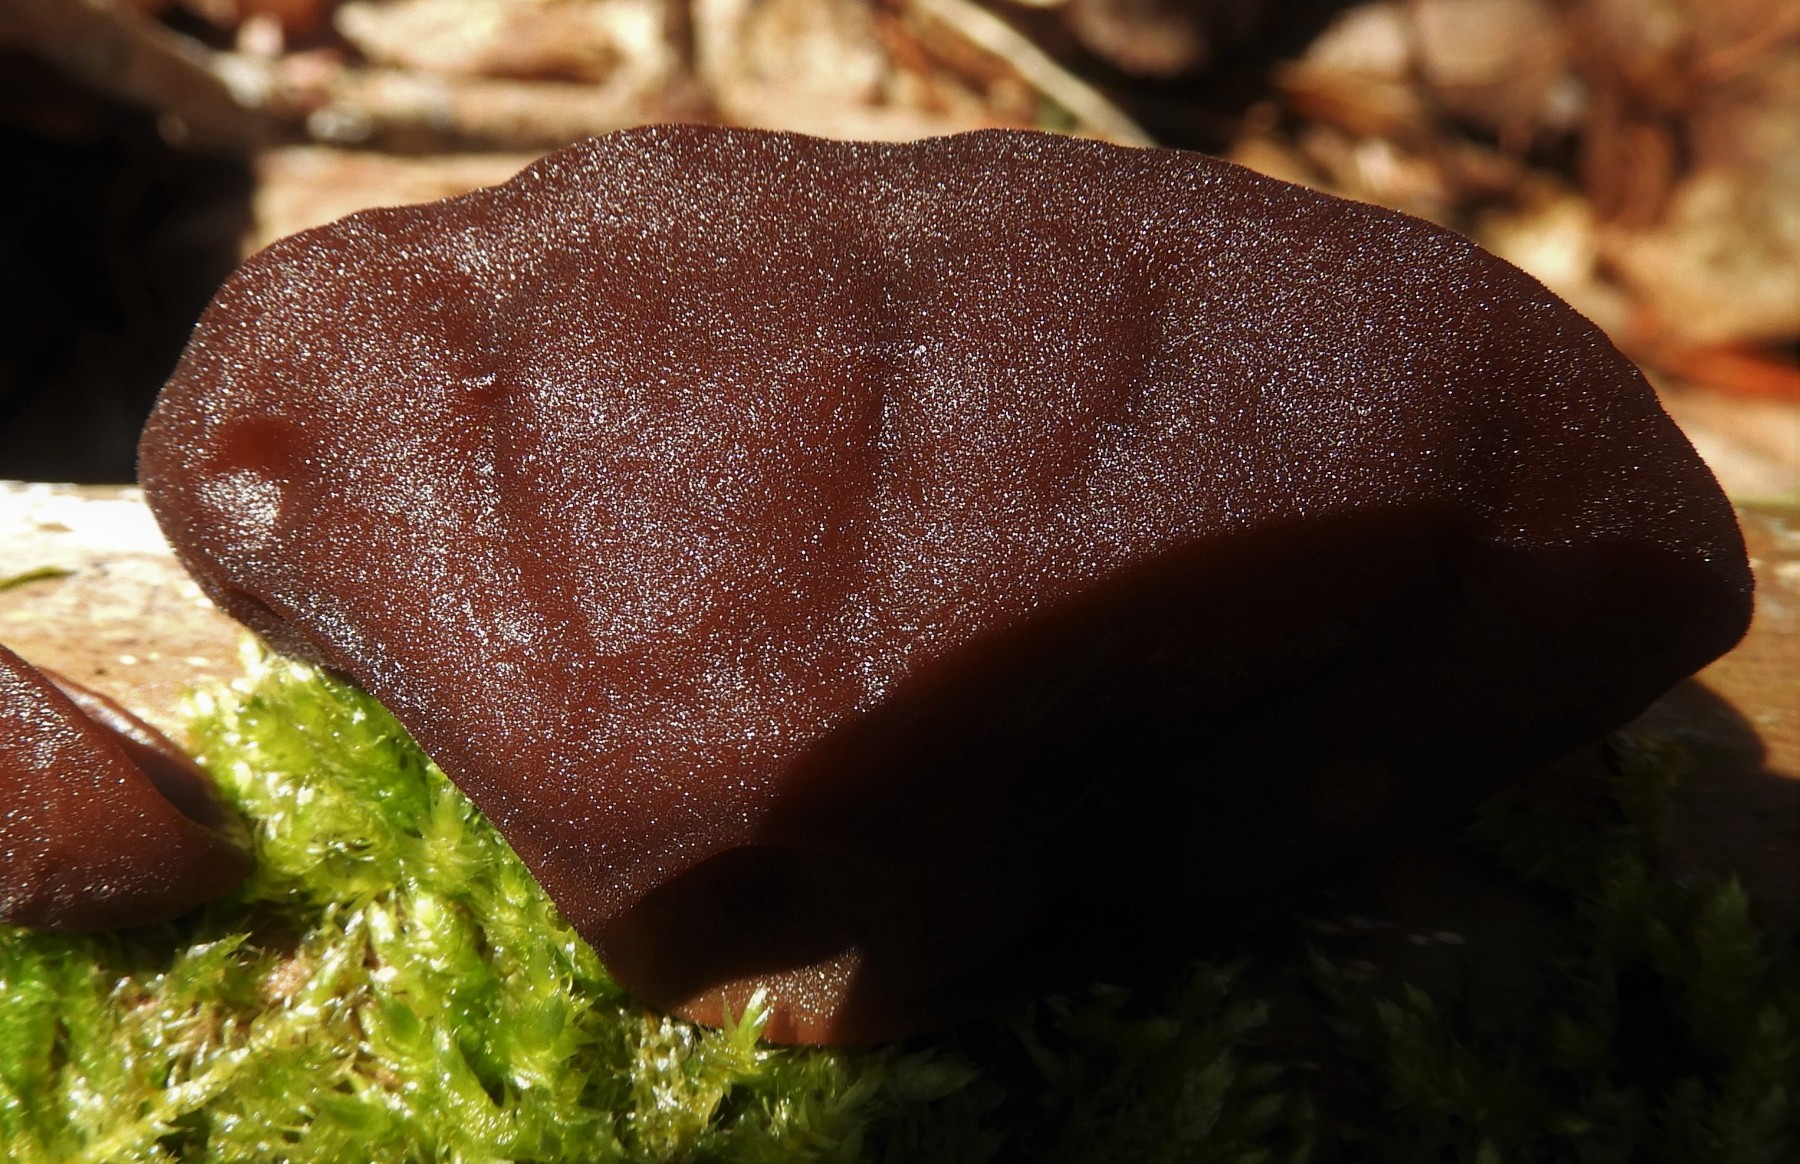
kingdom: Fungi
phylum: Basidiomycota
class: Agaricomycetes
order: Auriculariales
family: Auriculariaceae
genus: Auricularia
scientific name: Auricularia auricula-judae
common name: almindelig judasøre
